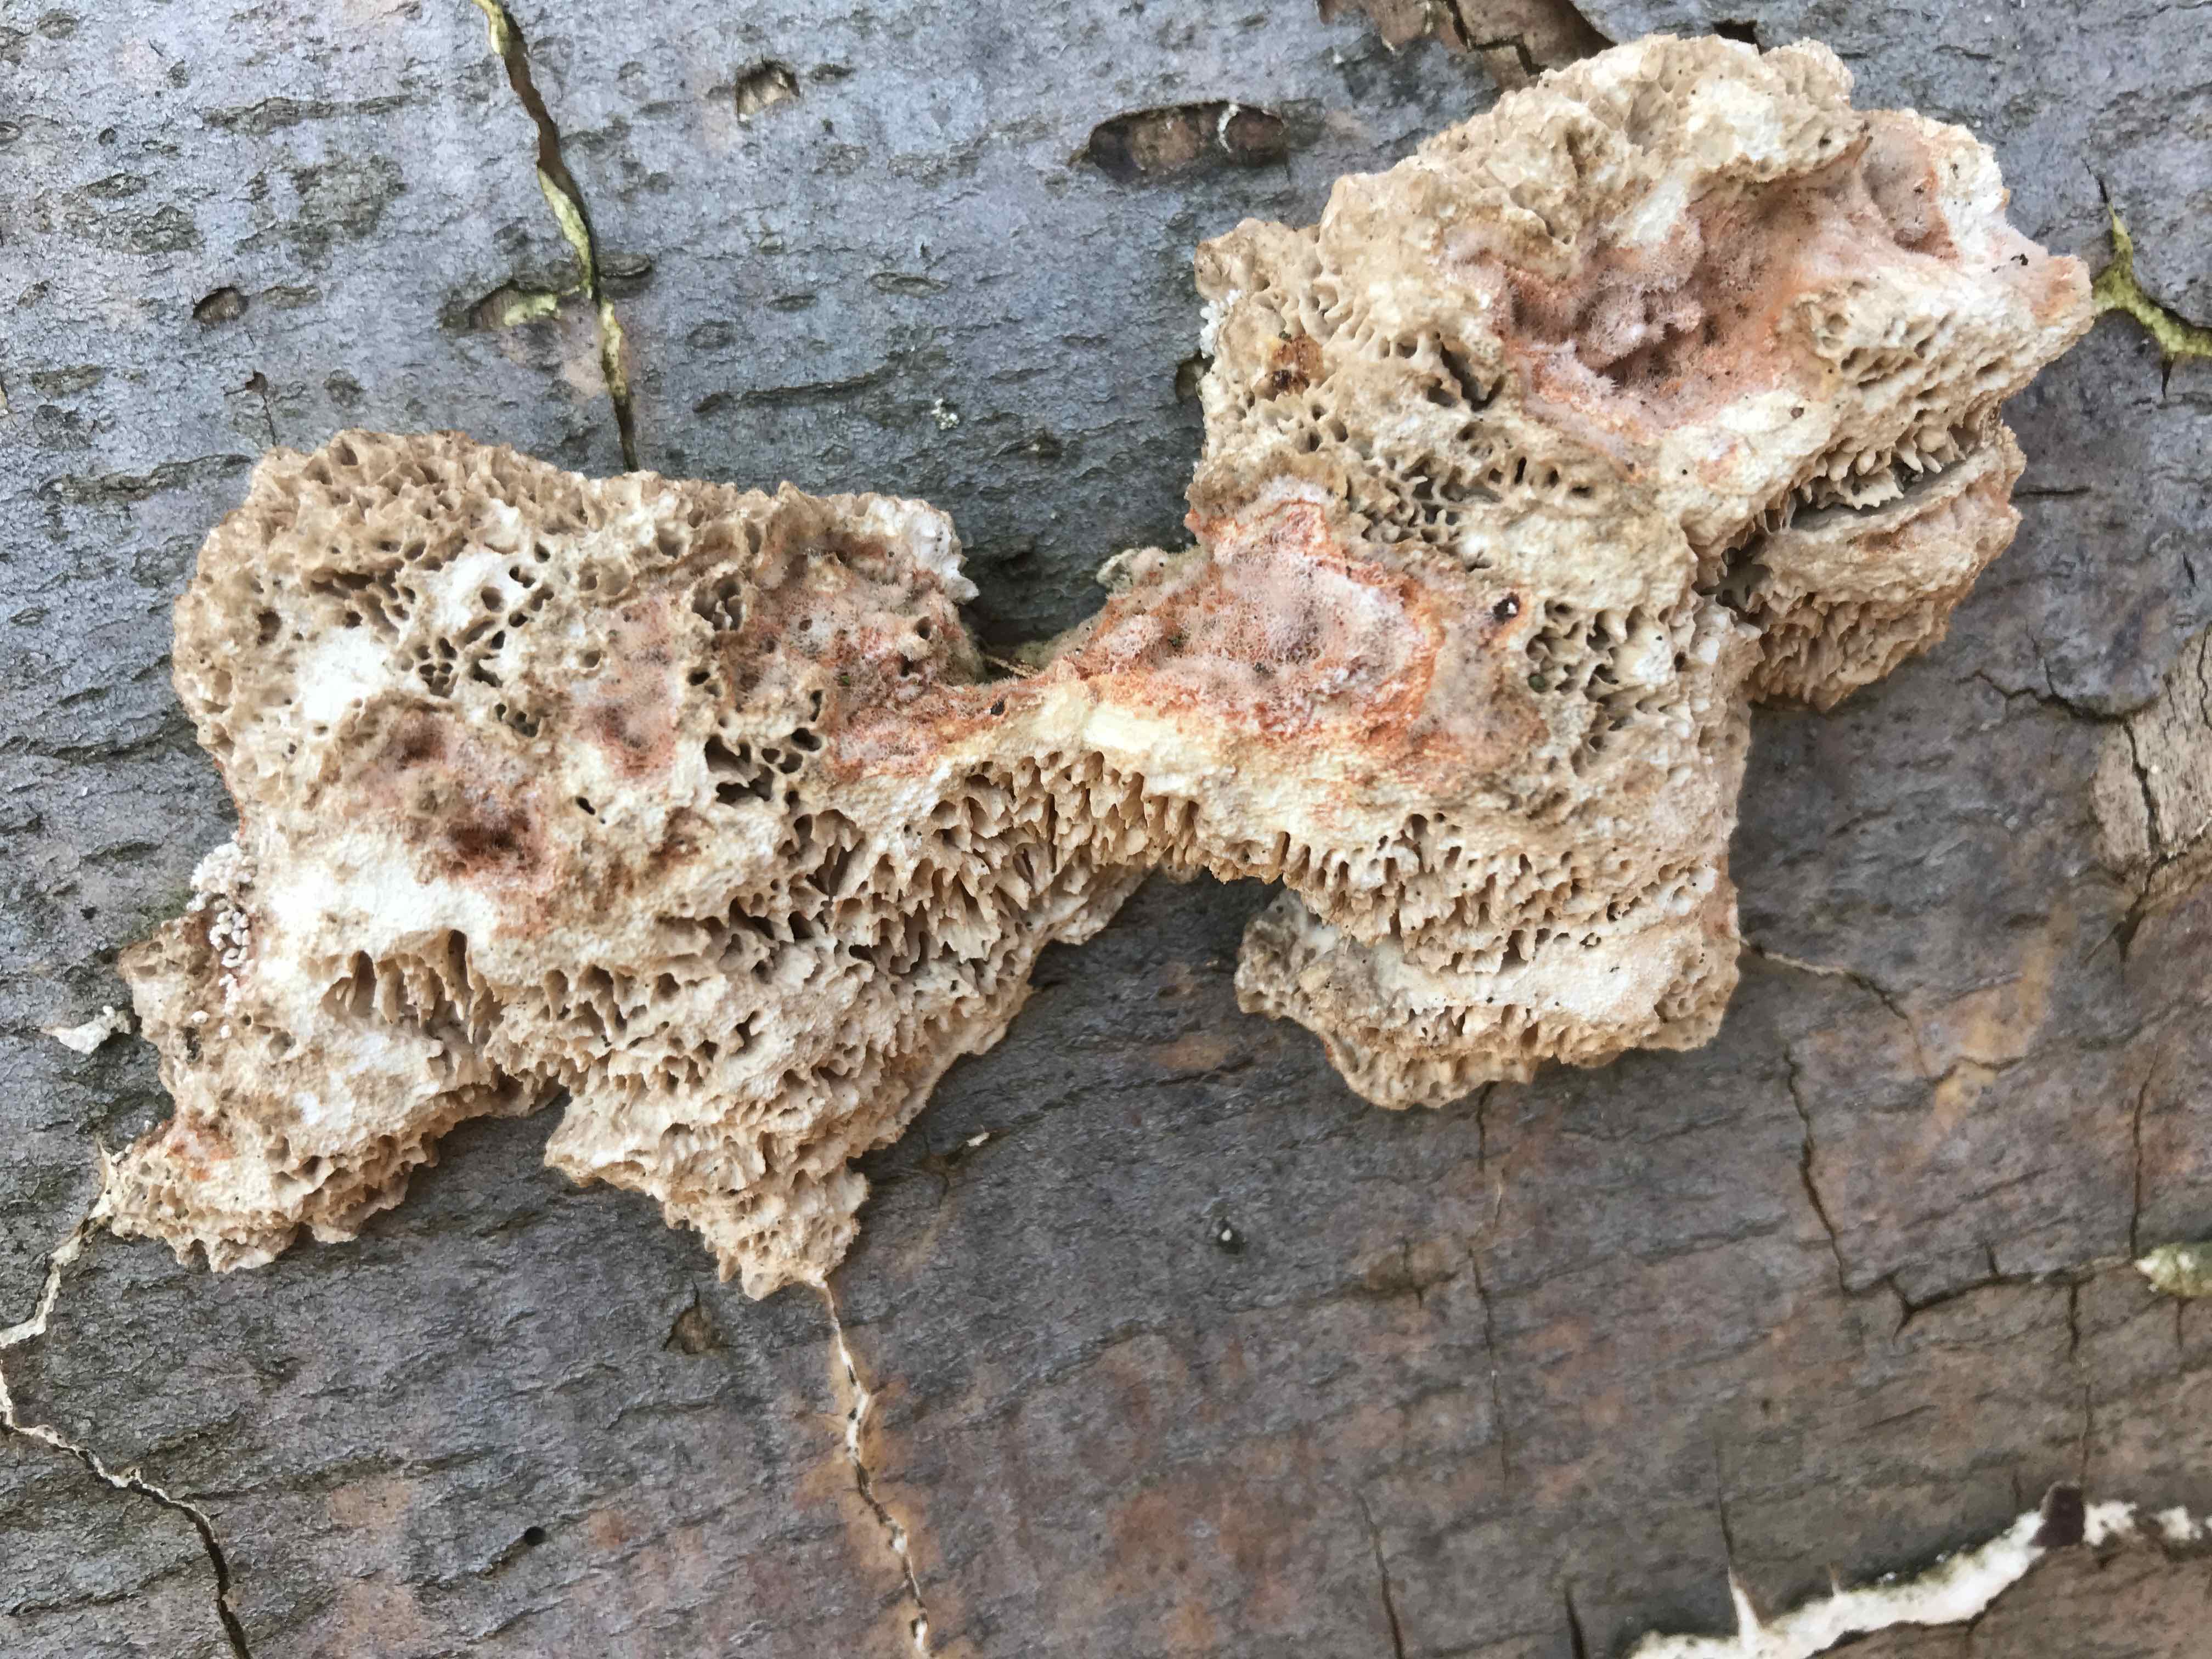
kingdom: Fungi
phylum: Basidiomycota
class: Agaricomycetes
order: Polyporales
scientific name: Polyporales
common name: poresvampordenen
